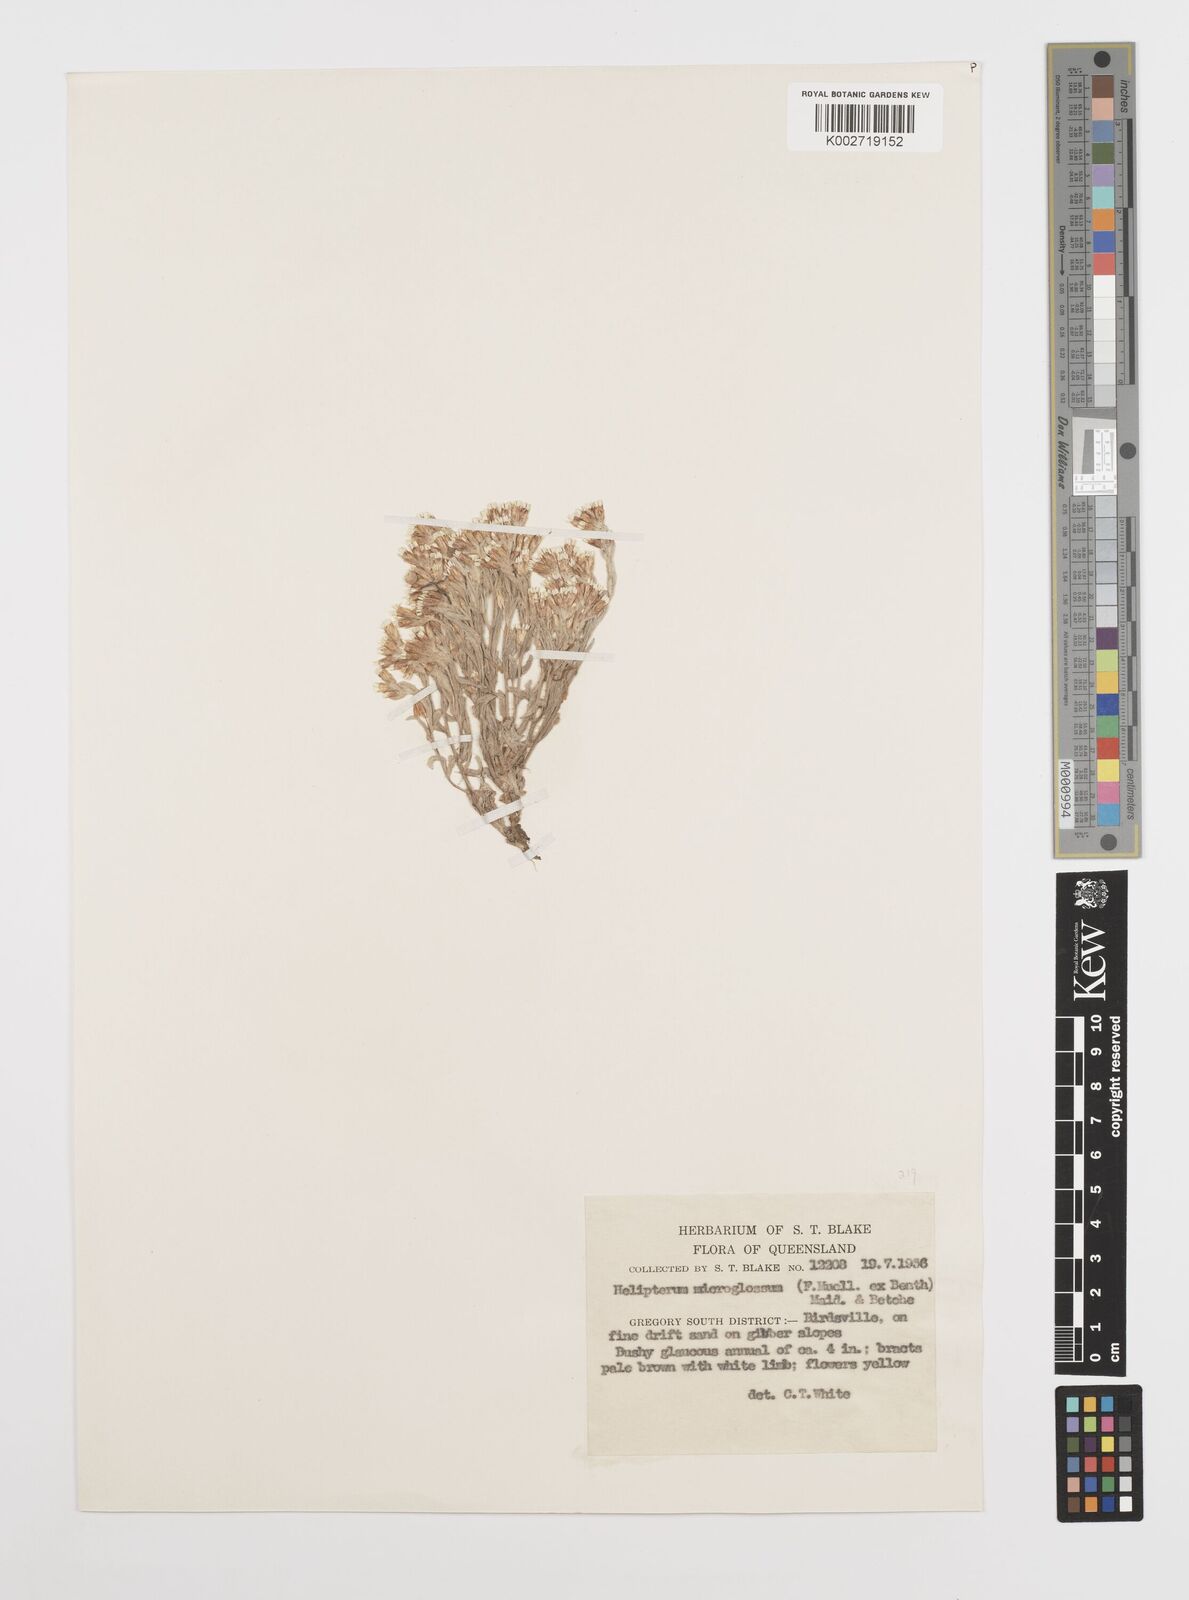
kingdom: Plantae
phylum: Tracheophyta
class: Magnoliopsida
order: Asterales
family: Asteraceae
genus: Rhodanthe
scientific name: Rhodanthe microglossa
